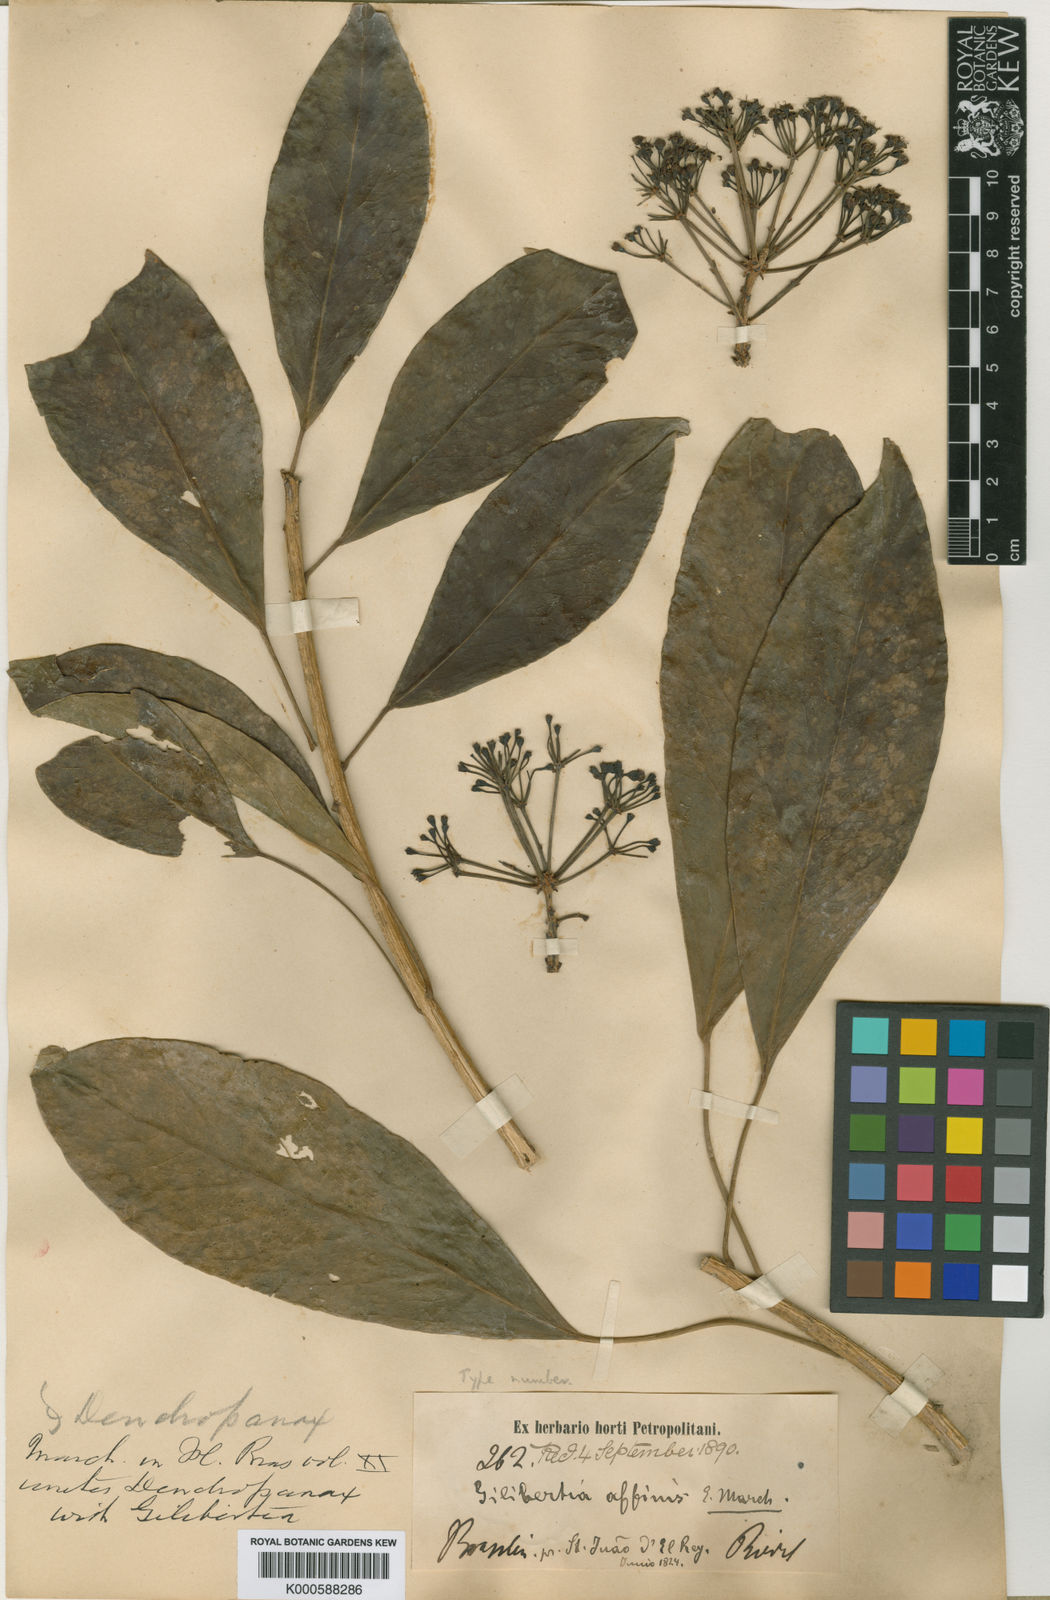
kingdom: Plantae
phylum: Tracheophyta
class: Magnoliopsida
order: Apiales
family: Araliaceae
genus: Dendropanax
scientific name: Dendropanax affinis
